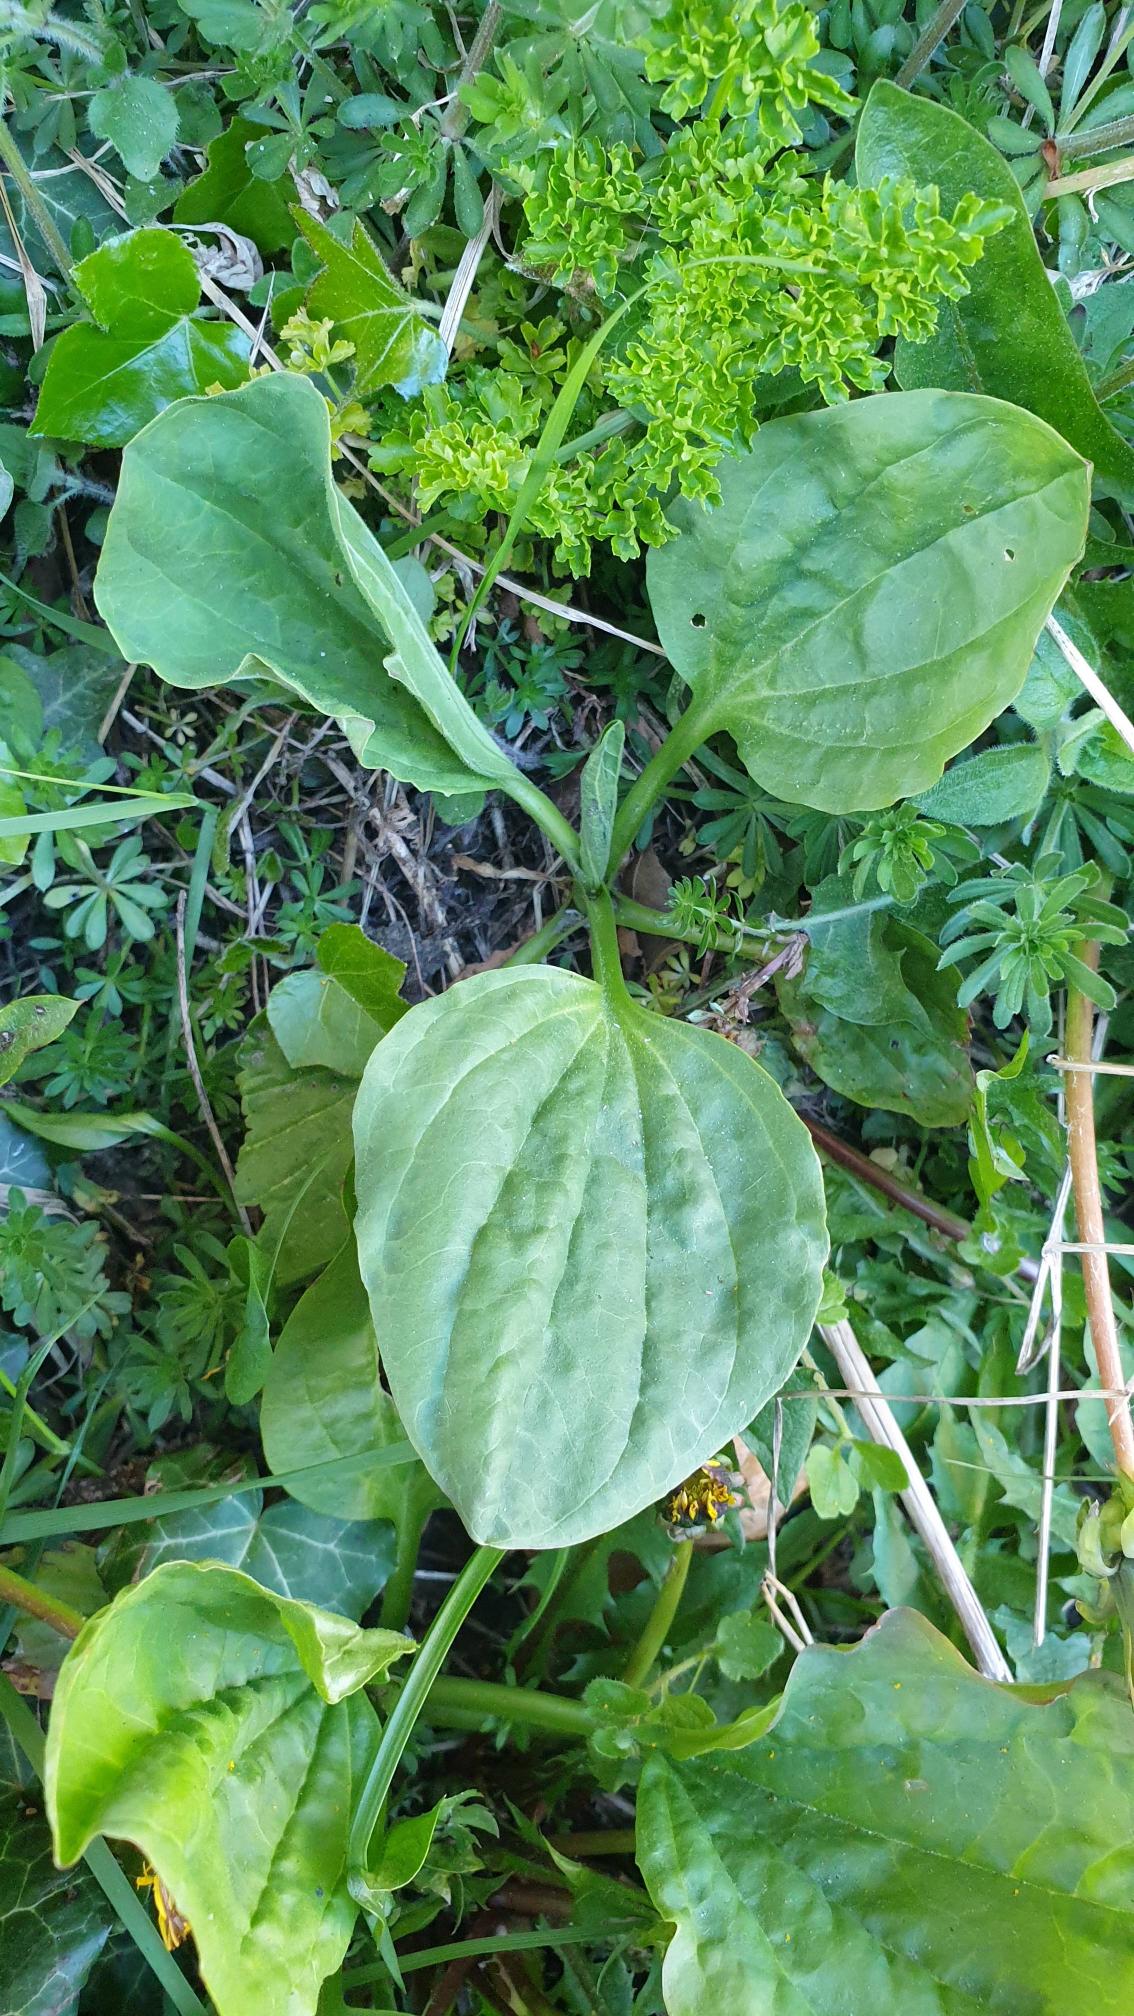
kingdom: Plantae
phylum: Tracheophyta
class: Magnoliopsida
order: Lamiales
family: Plantaginaceae
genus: Plantago
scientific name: Plantago major
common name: Glat vejbred
